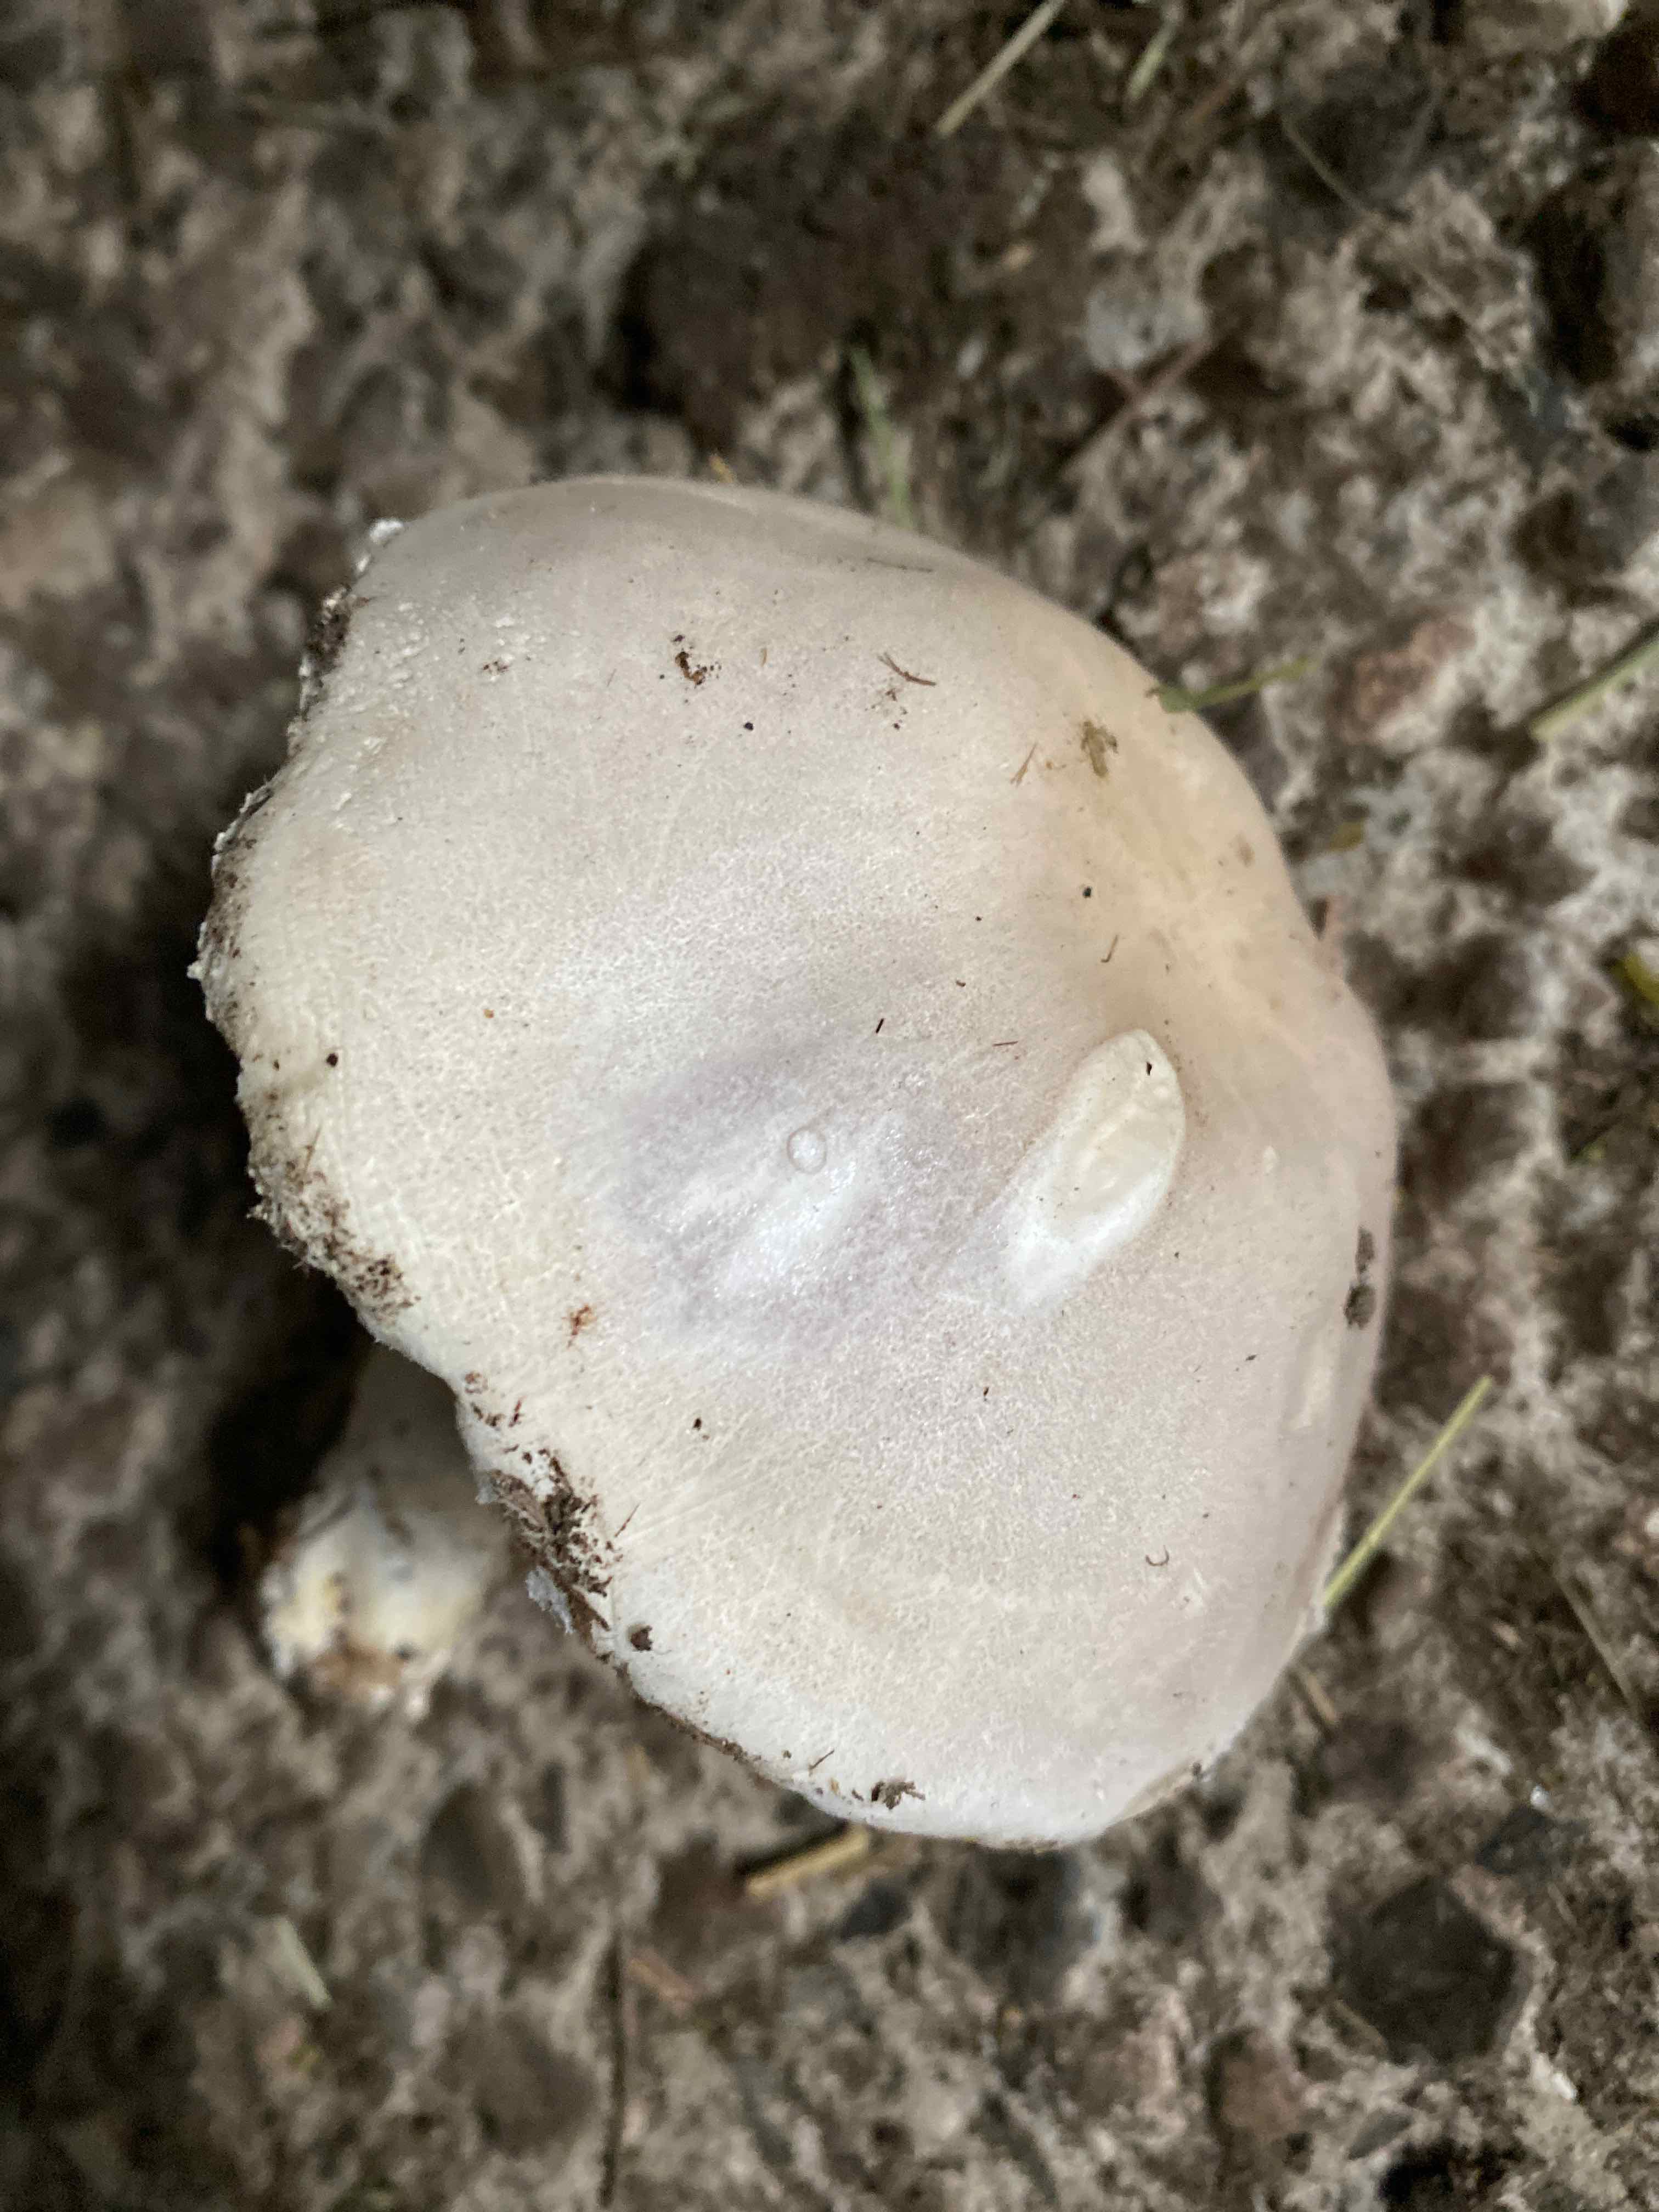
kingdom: Fungi
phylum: Basidiomycota
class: Agaricomycetes
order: Agaricales
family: Agaricaceae
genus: Leucoagaricus
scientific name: Leucoagaricus leucothites
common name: rosabladet silkehat
